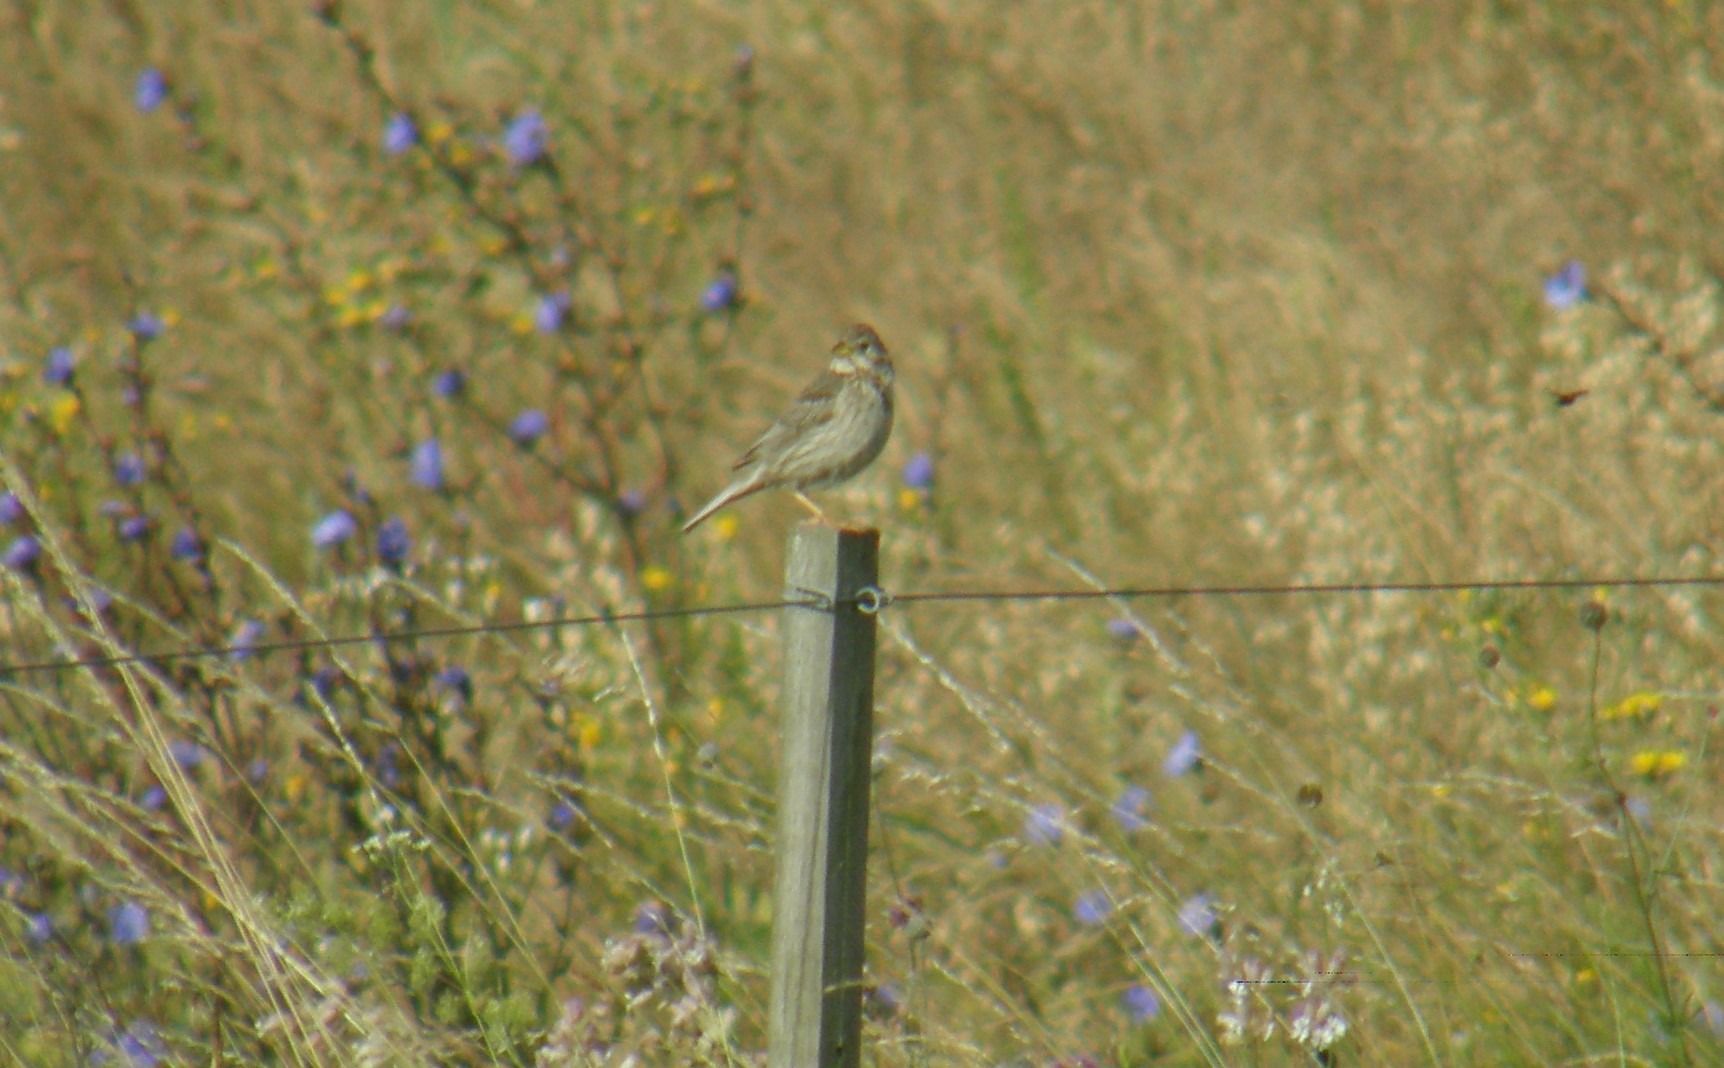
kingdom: Animalia
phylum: Chordata
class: Aves
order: Passeriformes
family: Emberizidae
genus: Emberiza
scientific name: Emberiza calandra
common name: Bomlærke
